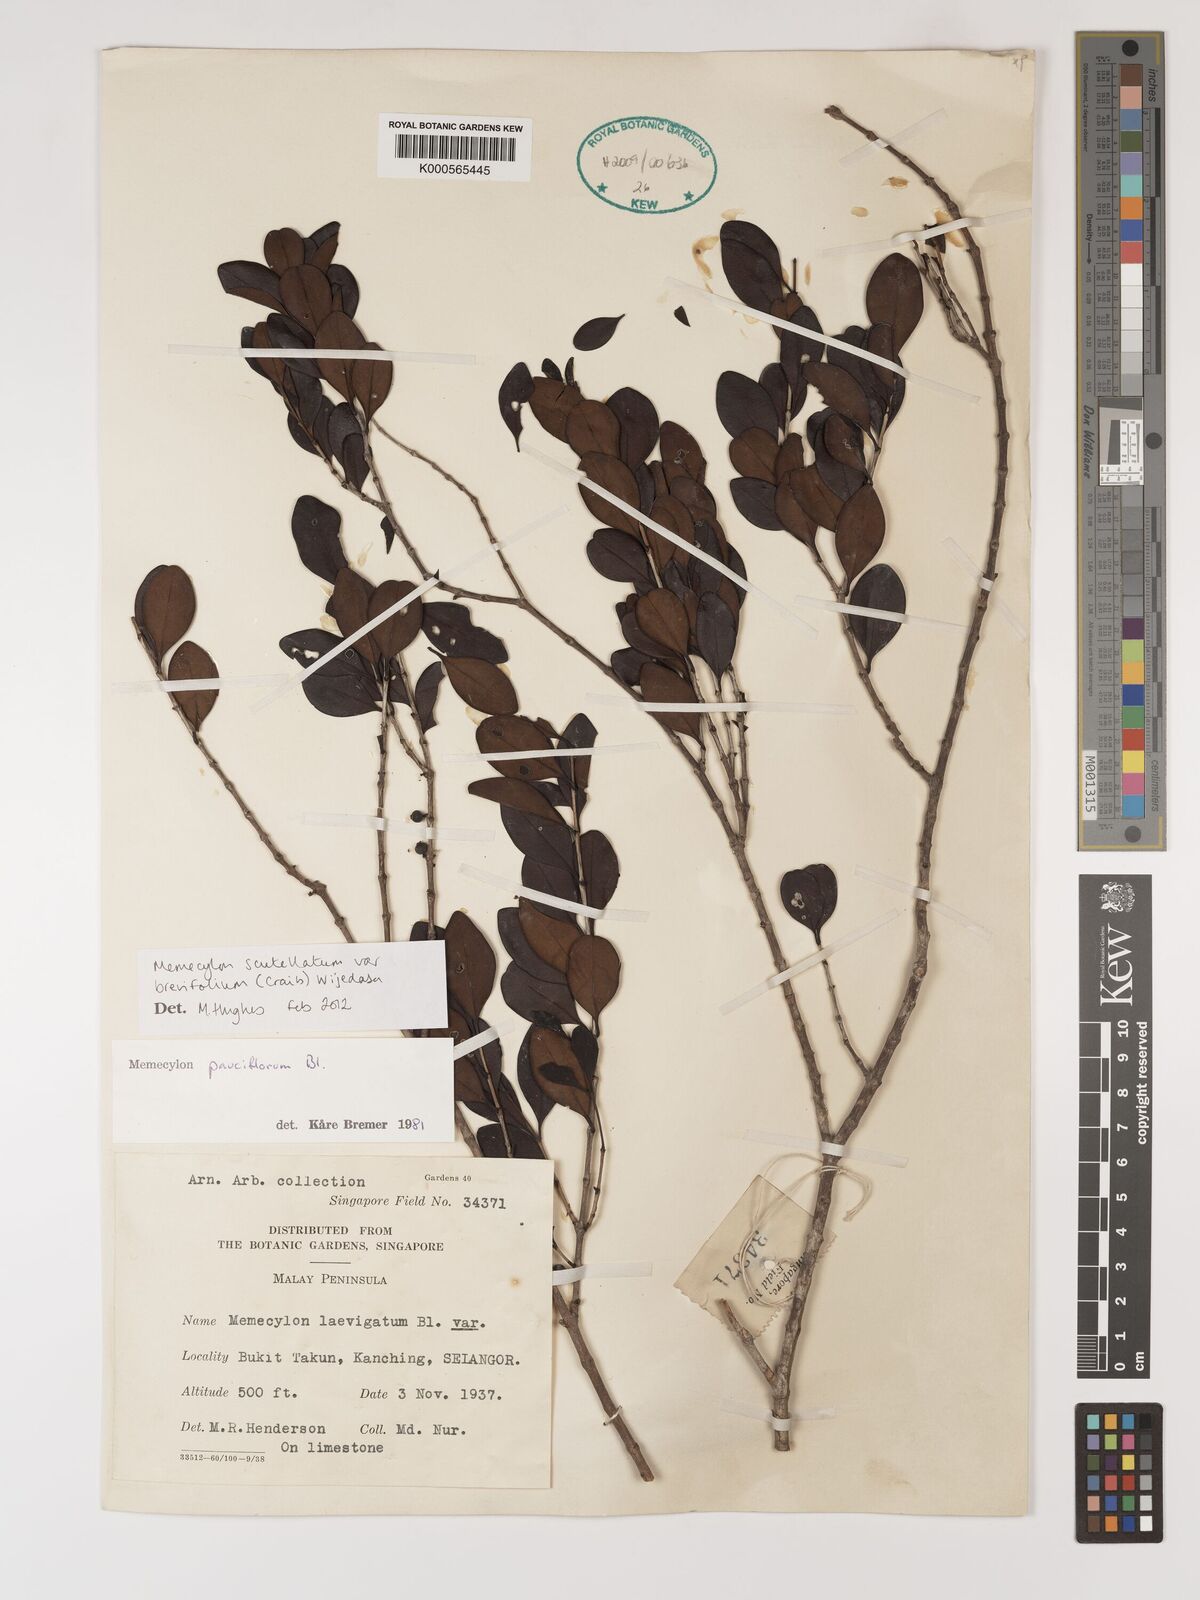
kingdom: Plantae
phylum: Tracheophyta
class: Magnoliopsida
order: Myrtales
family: Melastomataceae
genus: Memecylon
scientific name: Memecylon scutellatum
